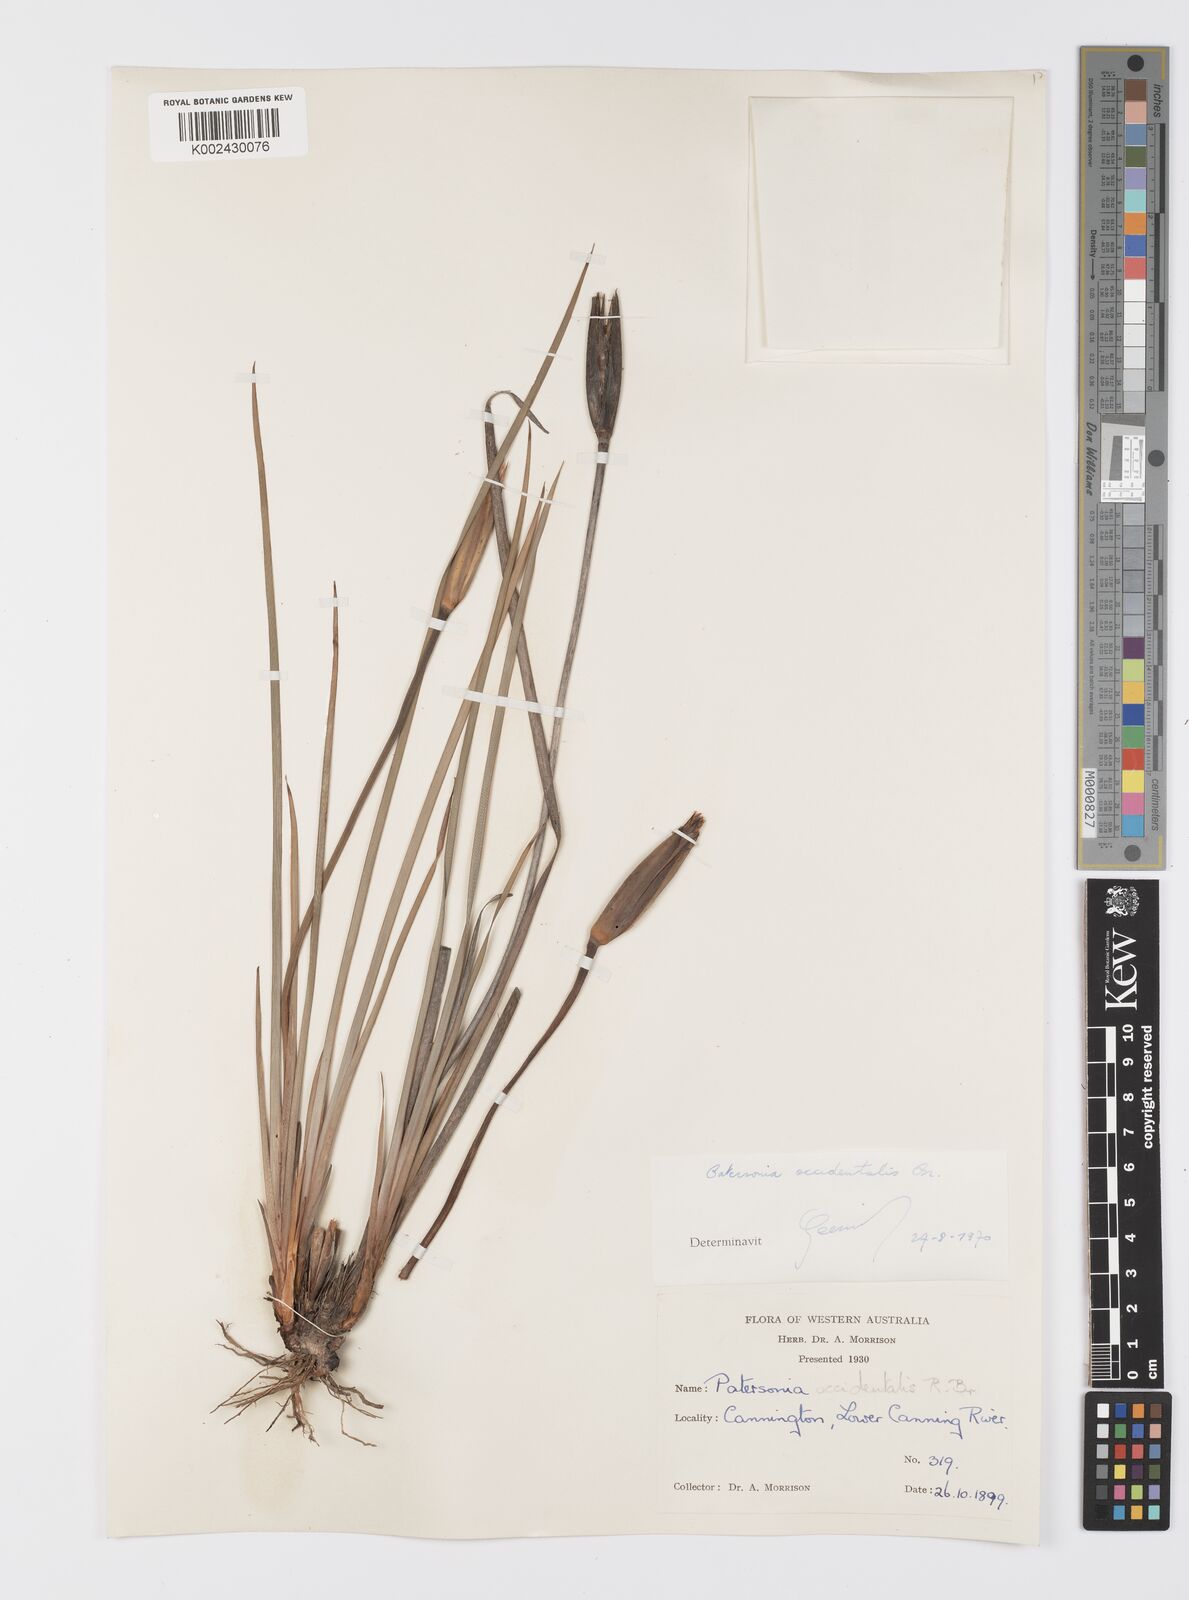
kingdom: Plantae
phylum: Tracheophyta
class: Liliopsida
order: Asparagales
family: Iridaceae
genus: Patersonia
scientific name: Patersonia occidentalis
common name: Long purple-flag
